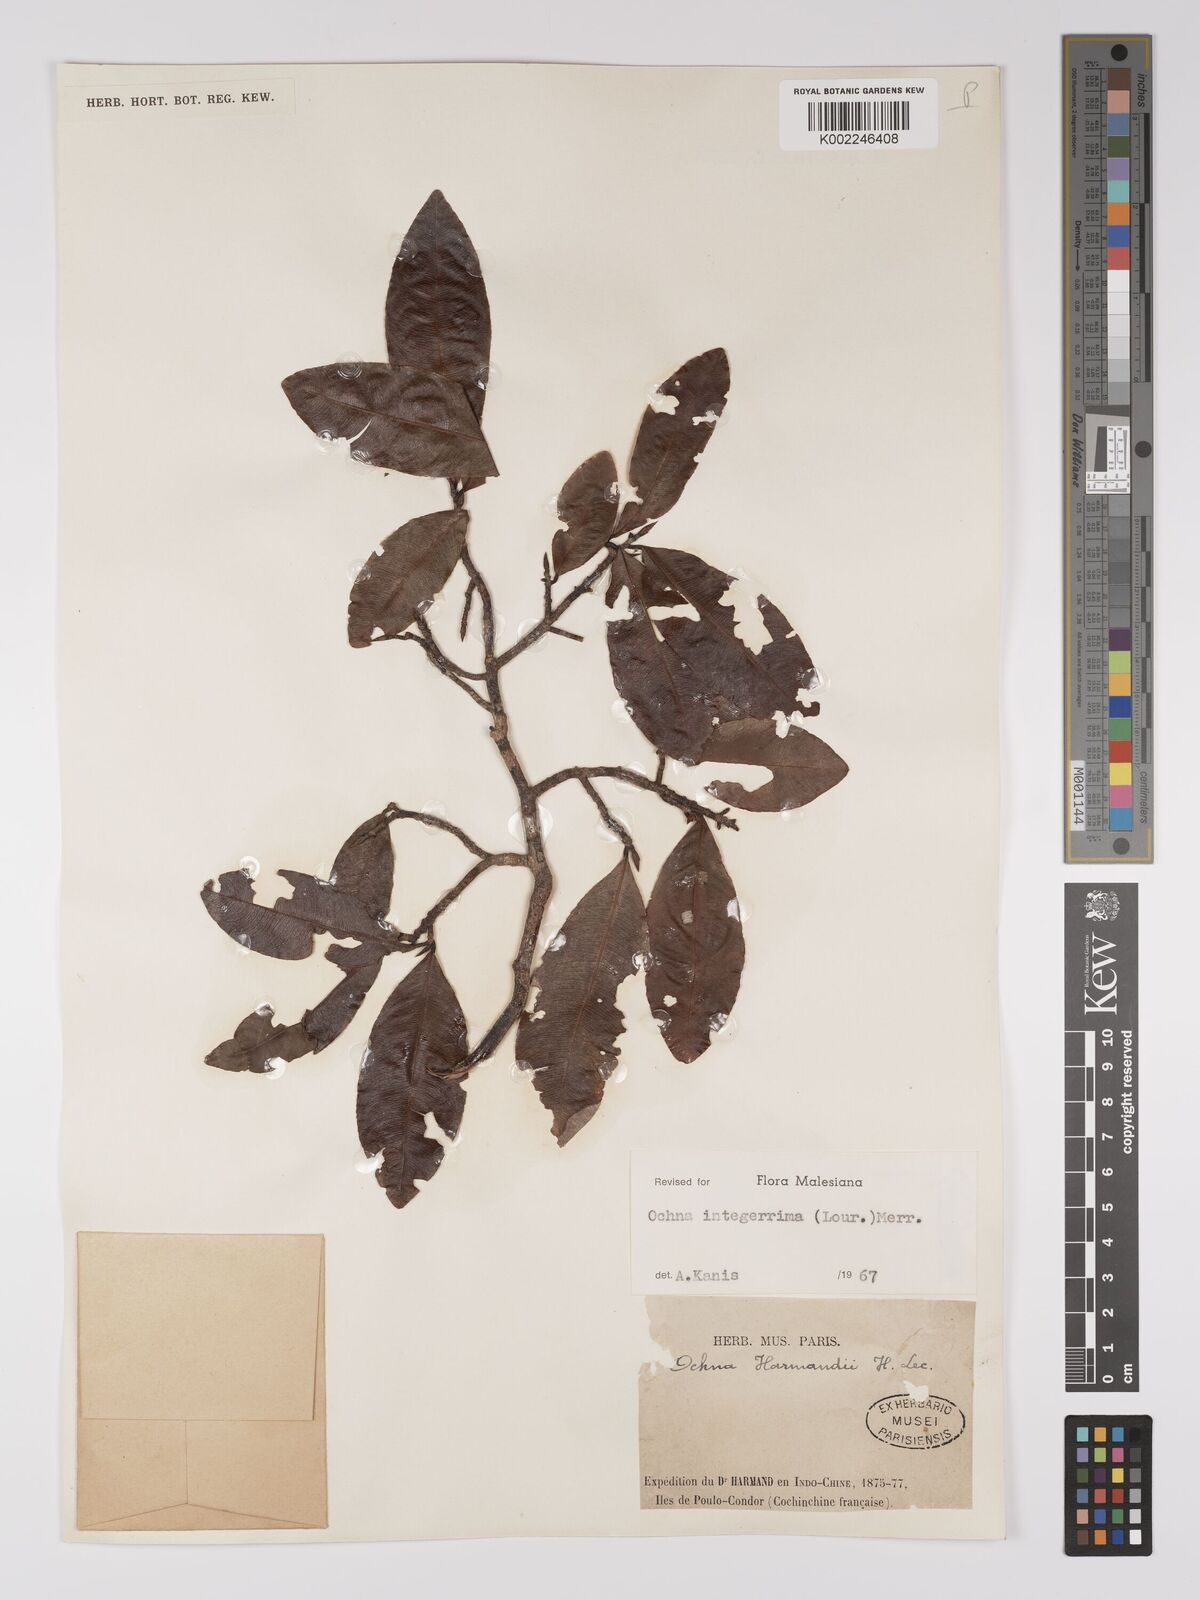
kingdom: Plantae
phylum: Tracheophyta
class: Magnoliopsida
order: Malpighiales
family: Ochnaceae
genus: Ochna
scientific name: Ochna integerrima
